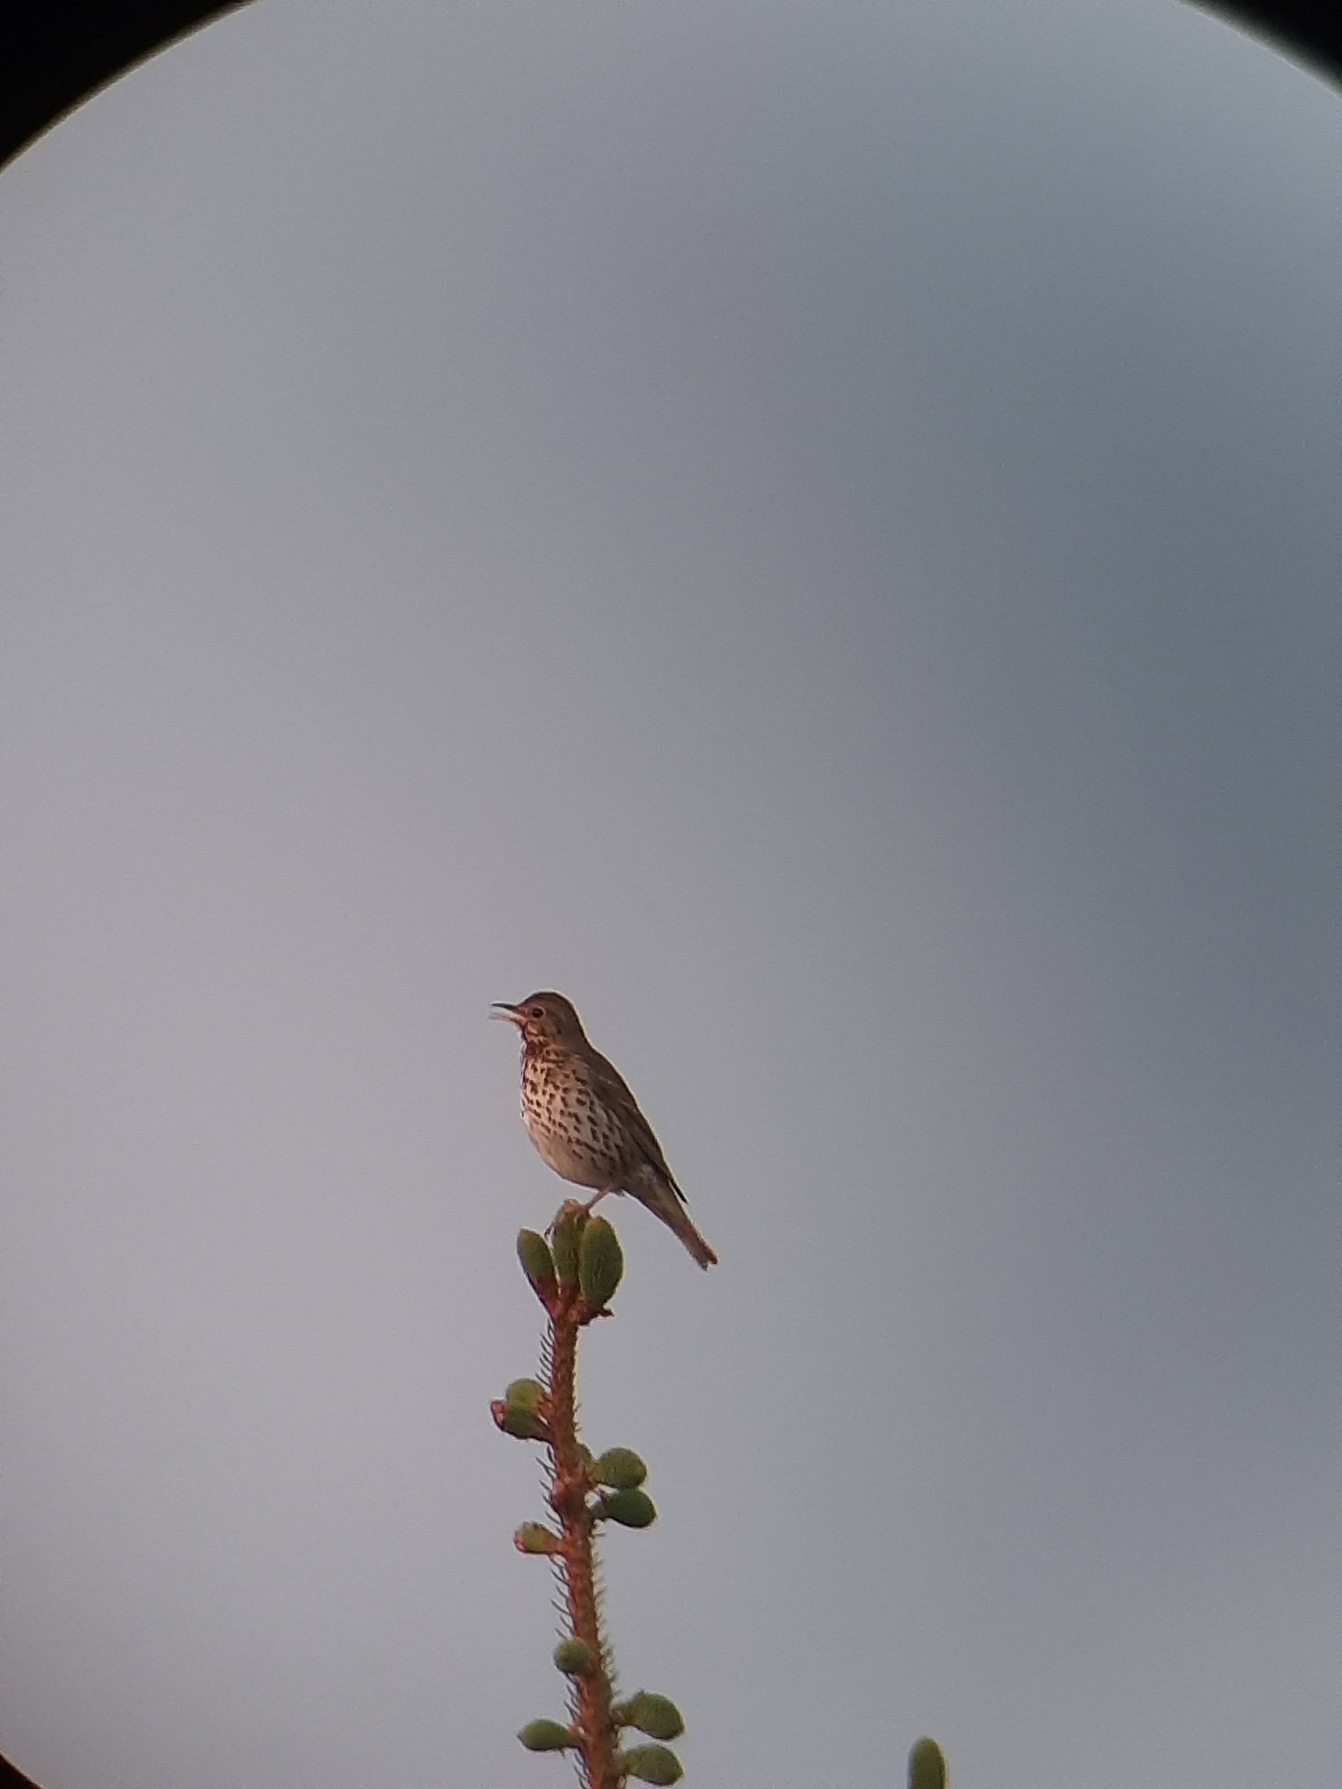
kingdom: Animalia
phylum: Chordata
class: Aves
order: Passeriformes
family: Turdidae
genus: Turdus
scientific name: Turdus philomelos
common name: Sangdrossel
